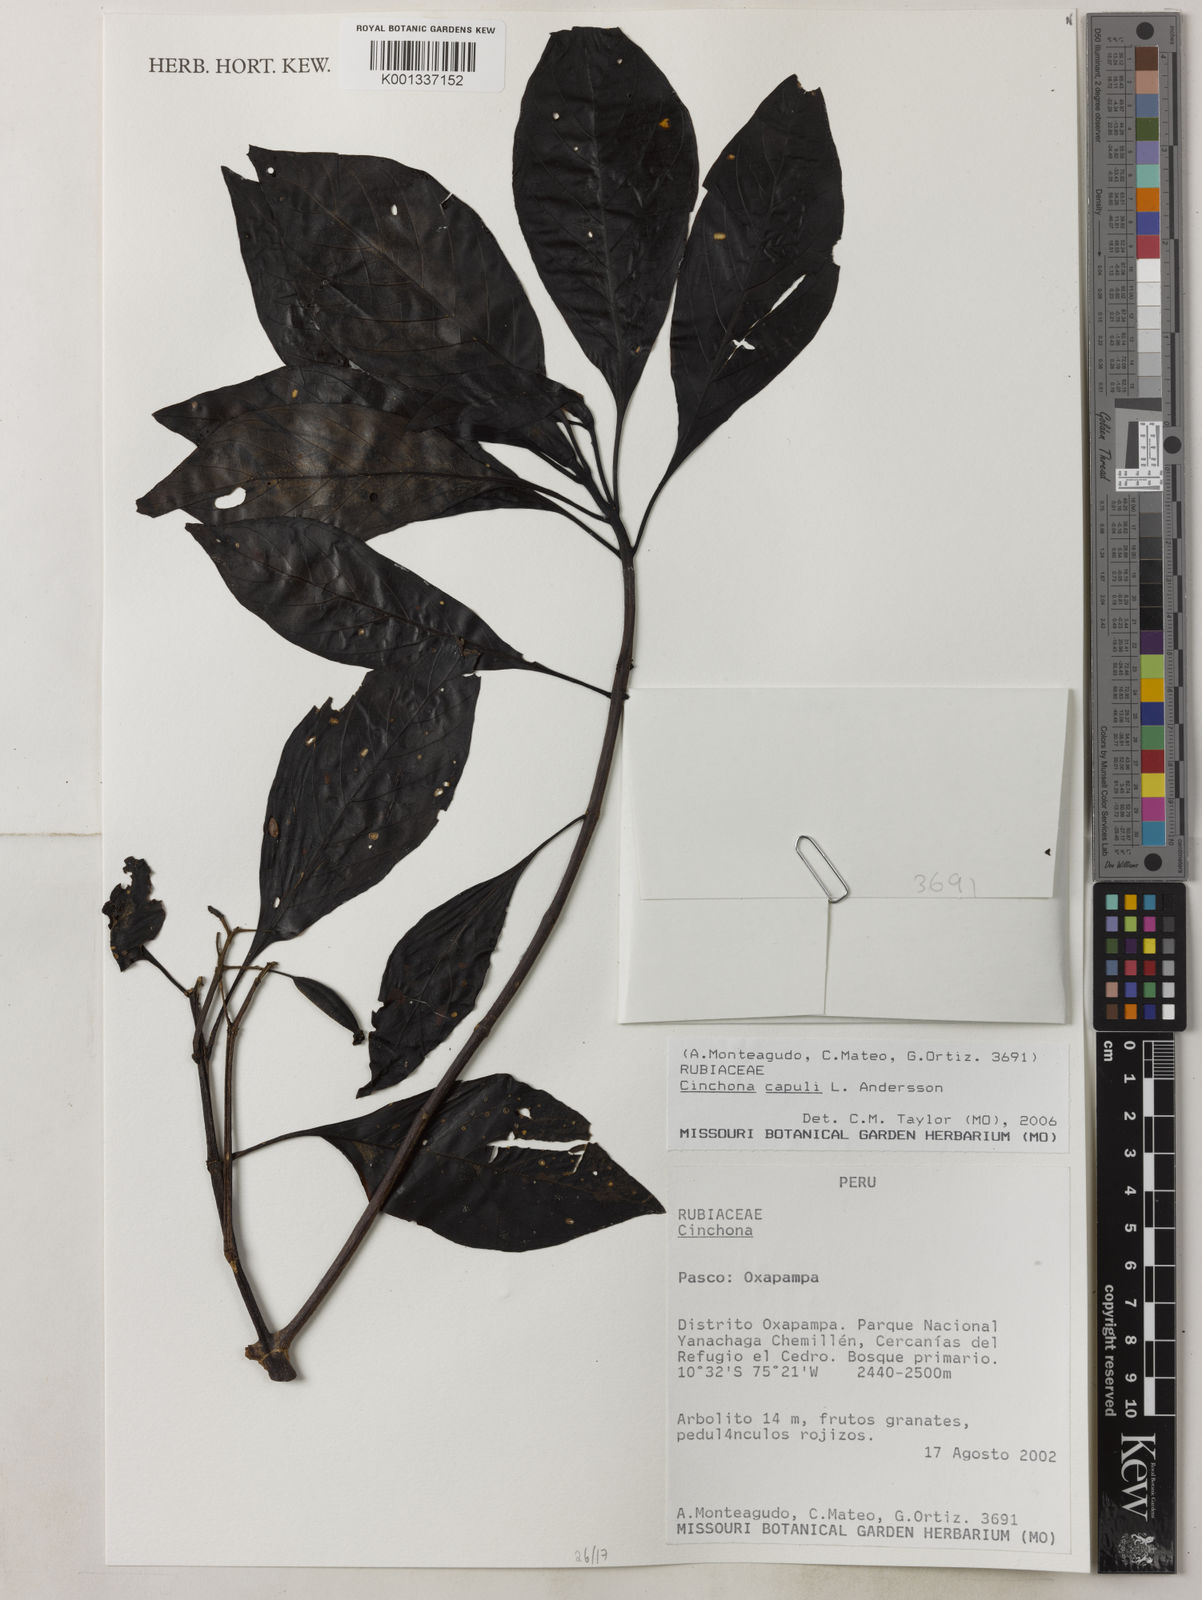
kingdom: Plantae
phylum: Tracheophyta
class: Magnoliopsida
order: Gentianales
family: Rubiaceae
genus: Cinchona
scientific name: Cinchona capuli
